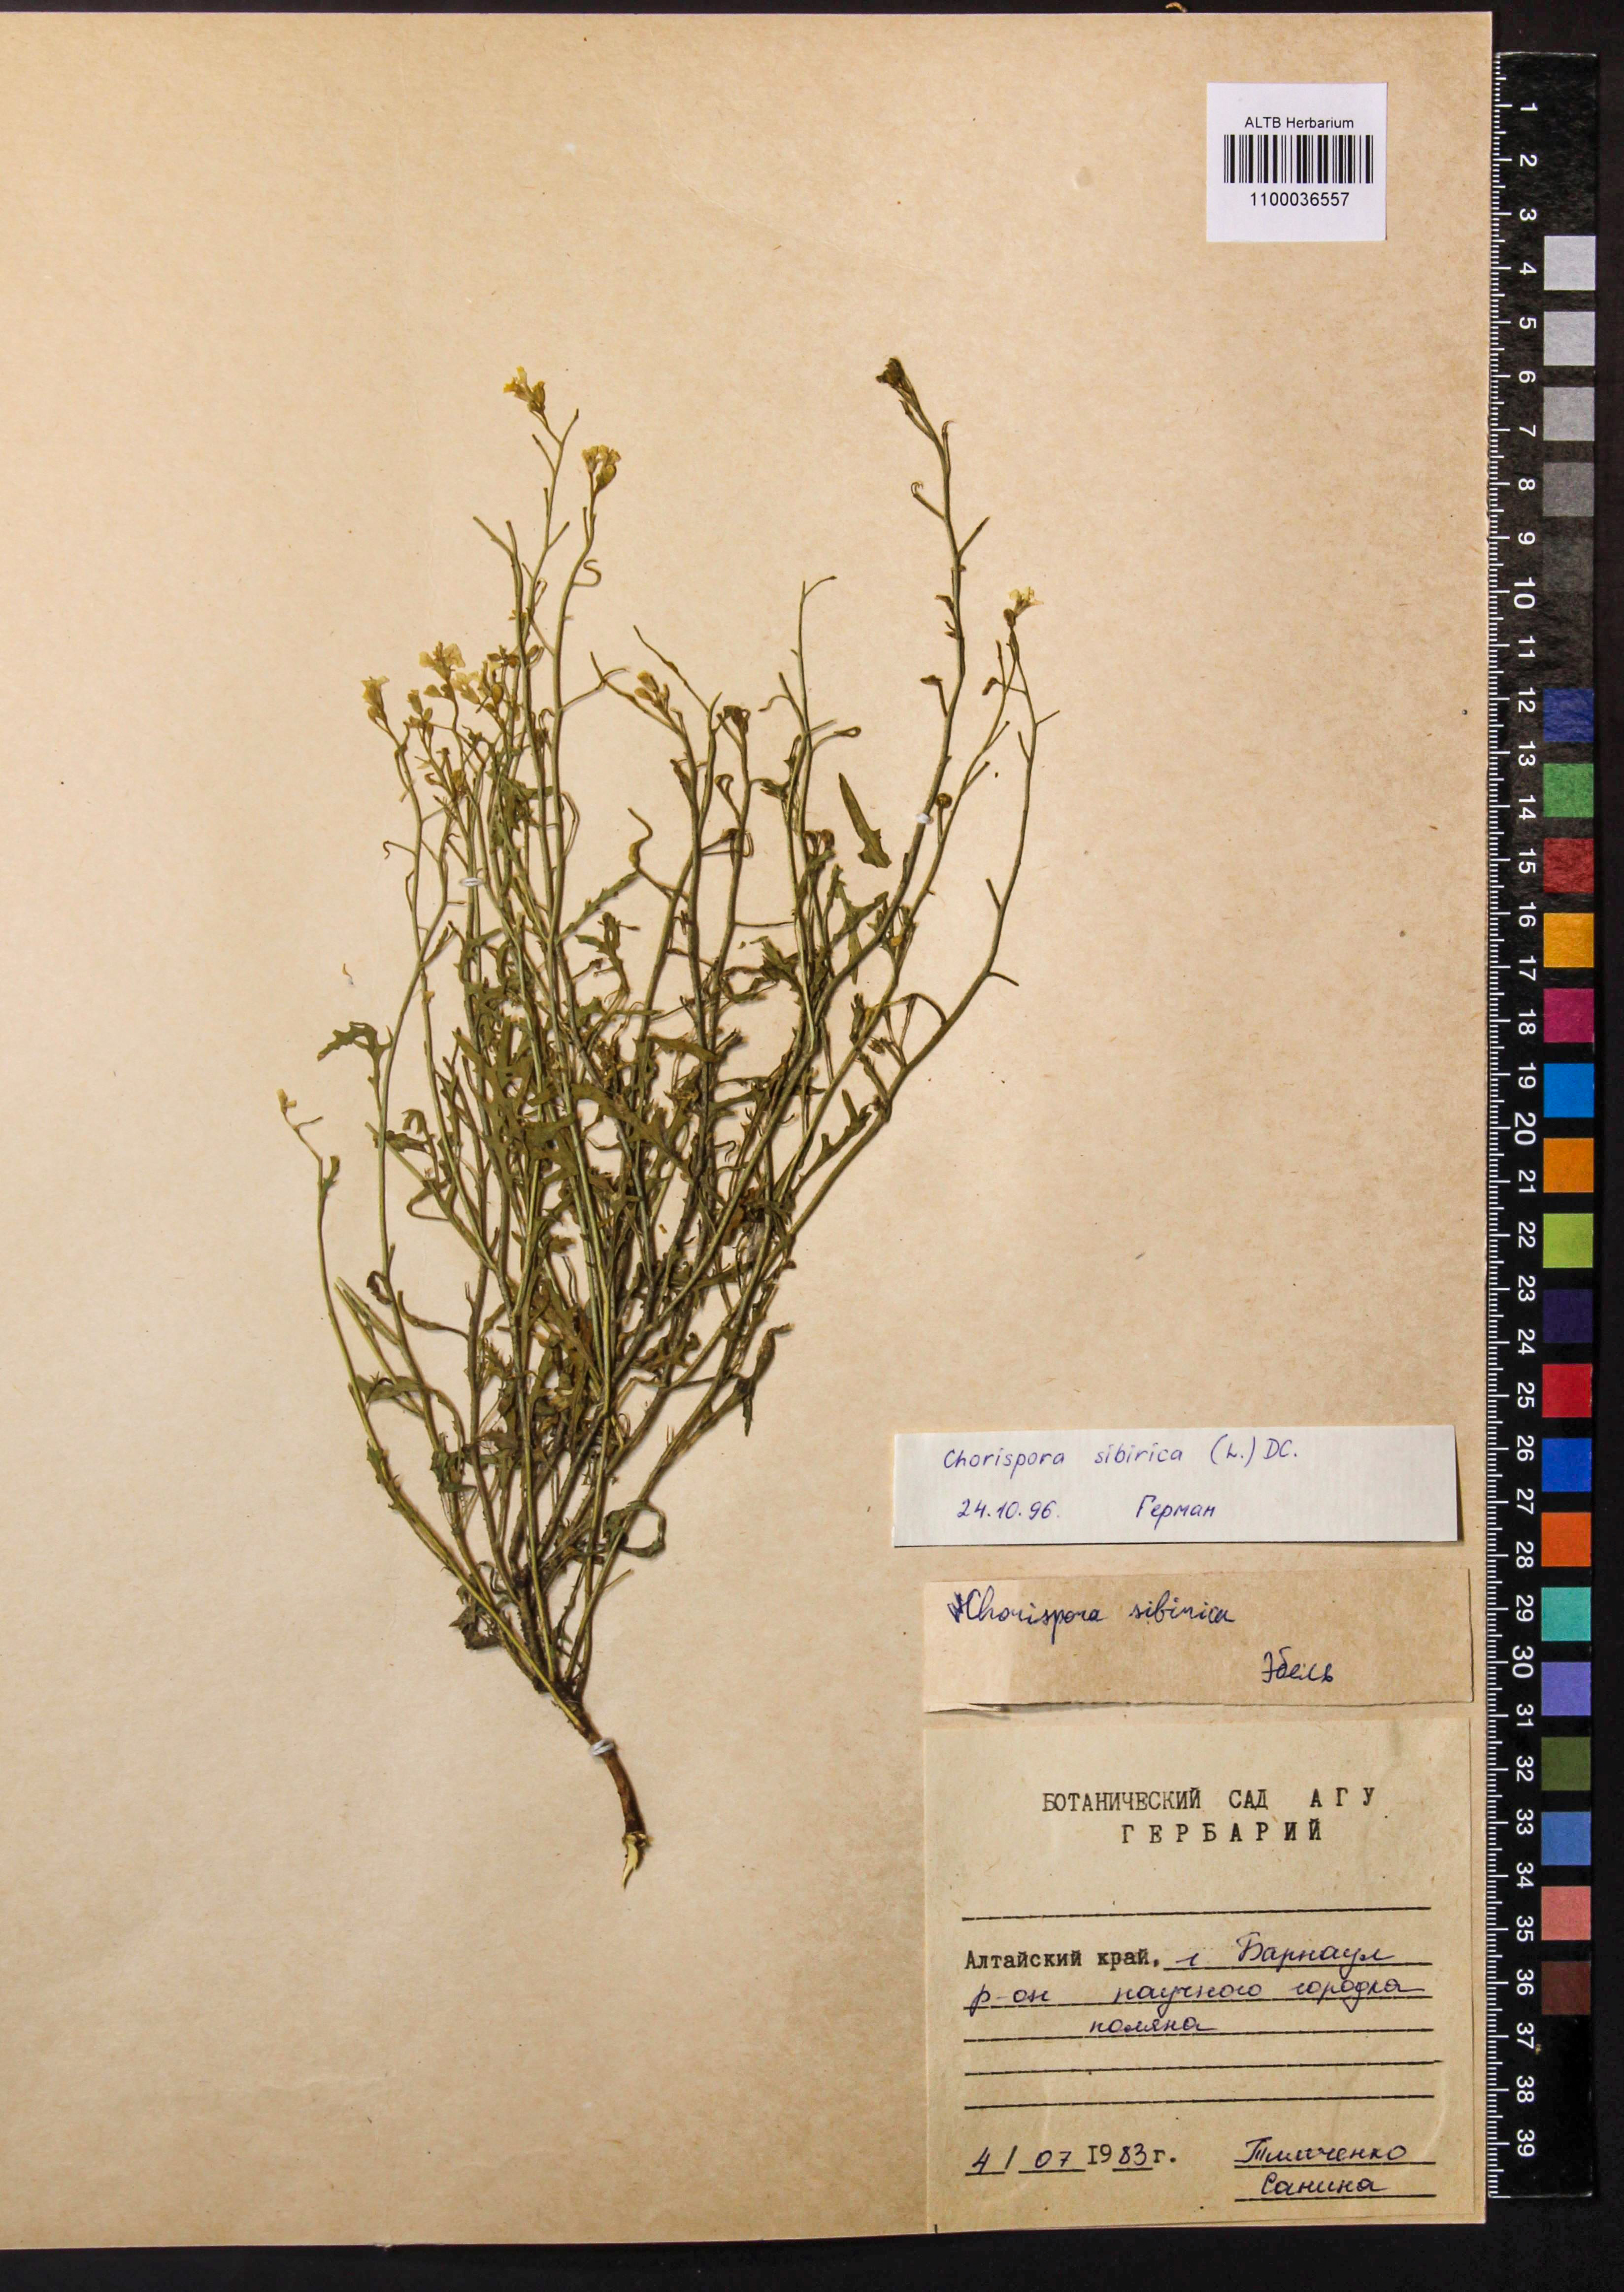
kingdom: Plantae
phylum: Tracheophyta
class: Magnoliopsida
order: Brassicales
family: Brassicaceae
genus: Chorispora
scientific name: Chorispora sibirica
